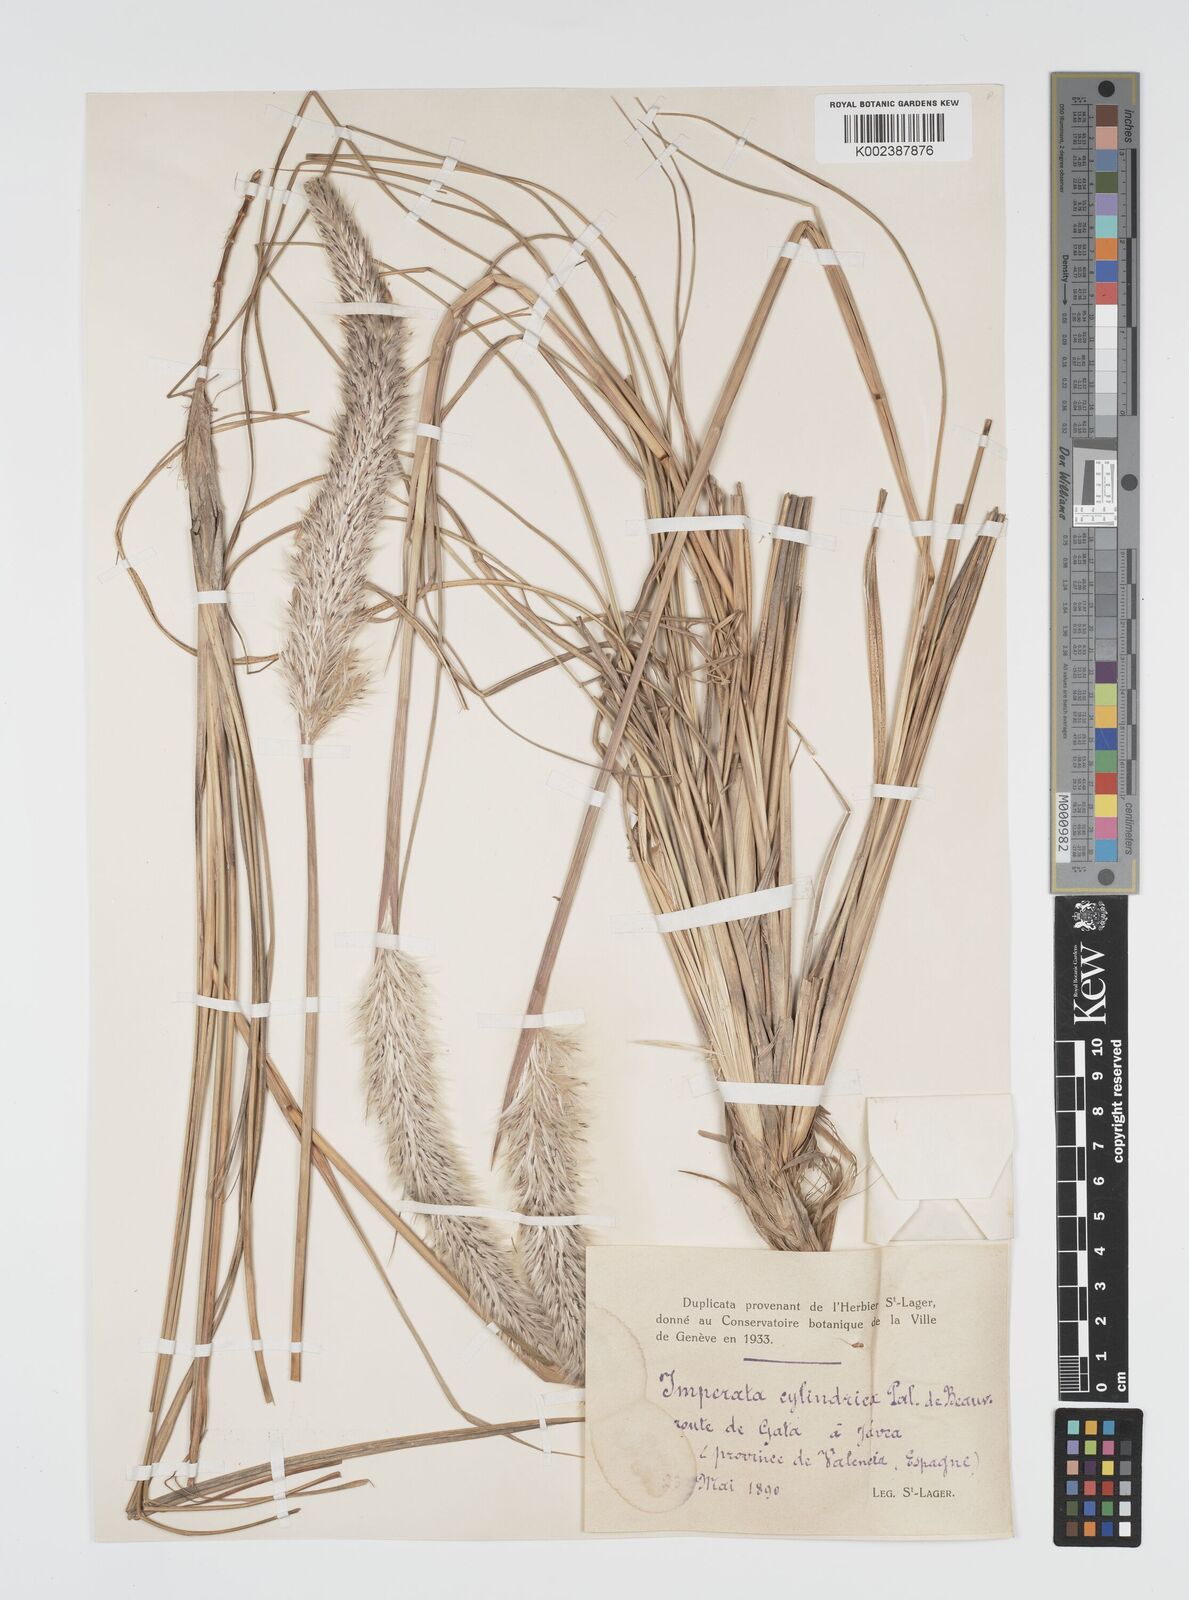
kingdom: Plantae
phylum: Tracheophyta
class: Liliopsida
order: Poales
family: Poaceae
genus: Imperata
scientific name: Imperata cylindrica
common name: Cogongrass
